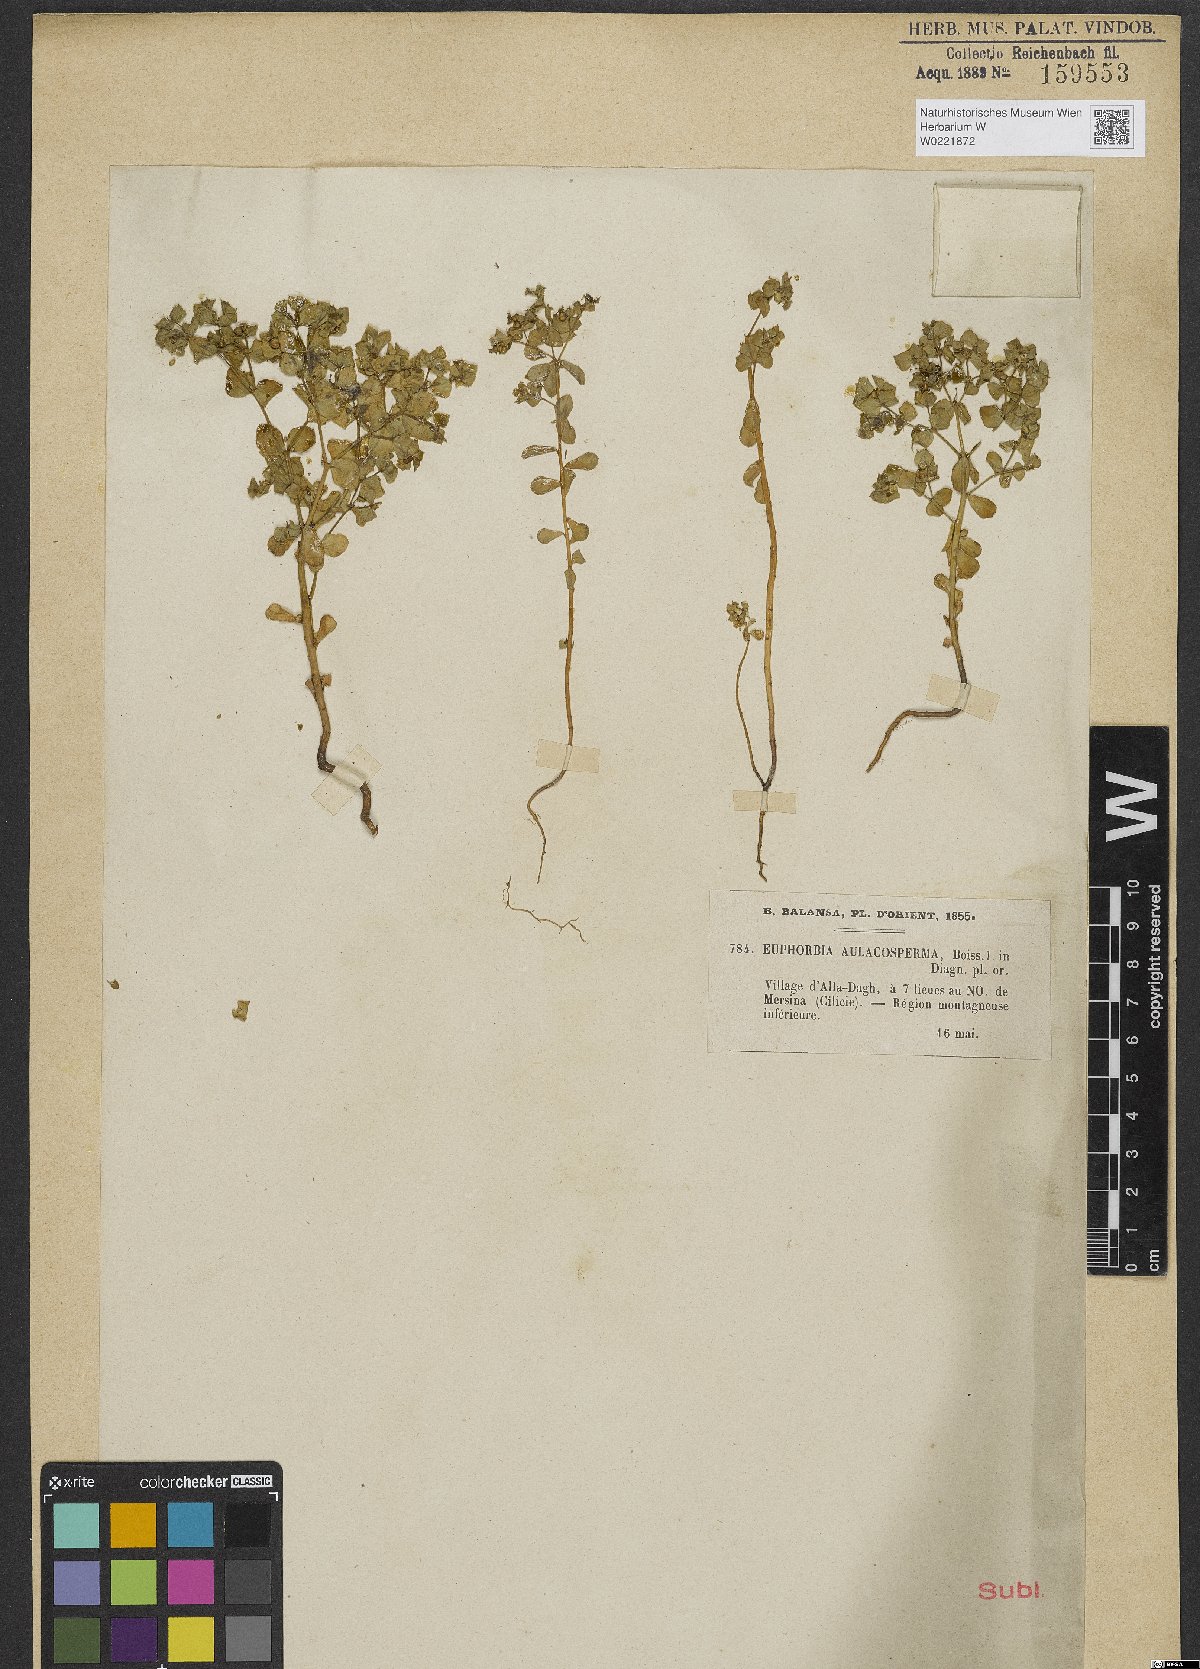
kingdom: Plantae
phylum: Tracheophyta
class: Magnoliopsida
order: Malpighiales
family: Euphorbiaceae
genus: Euphorbia
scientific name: Euphorbia aulacosperma
